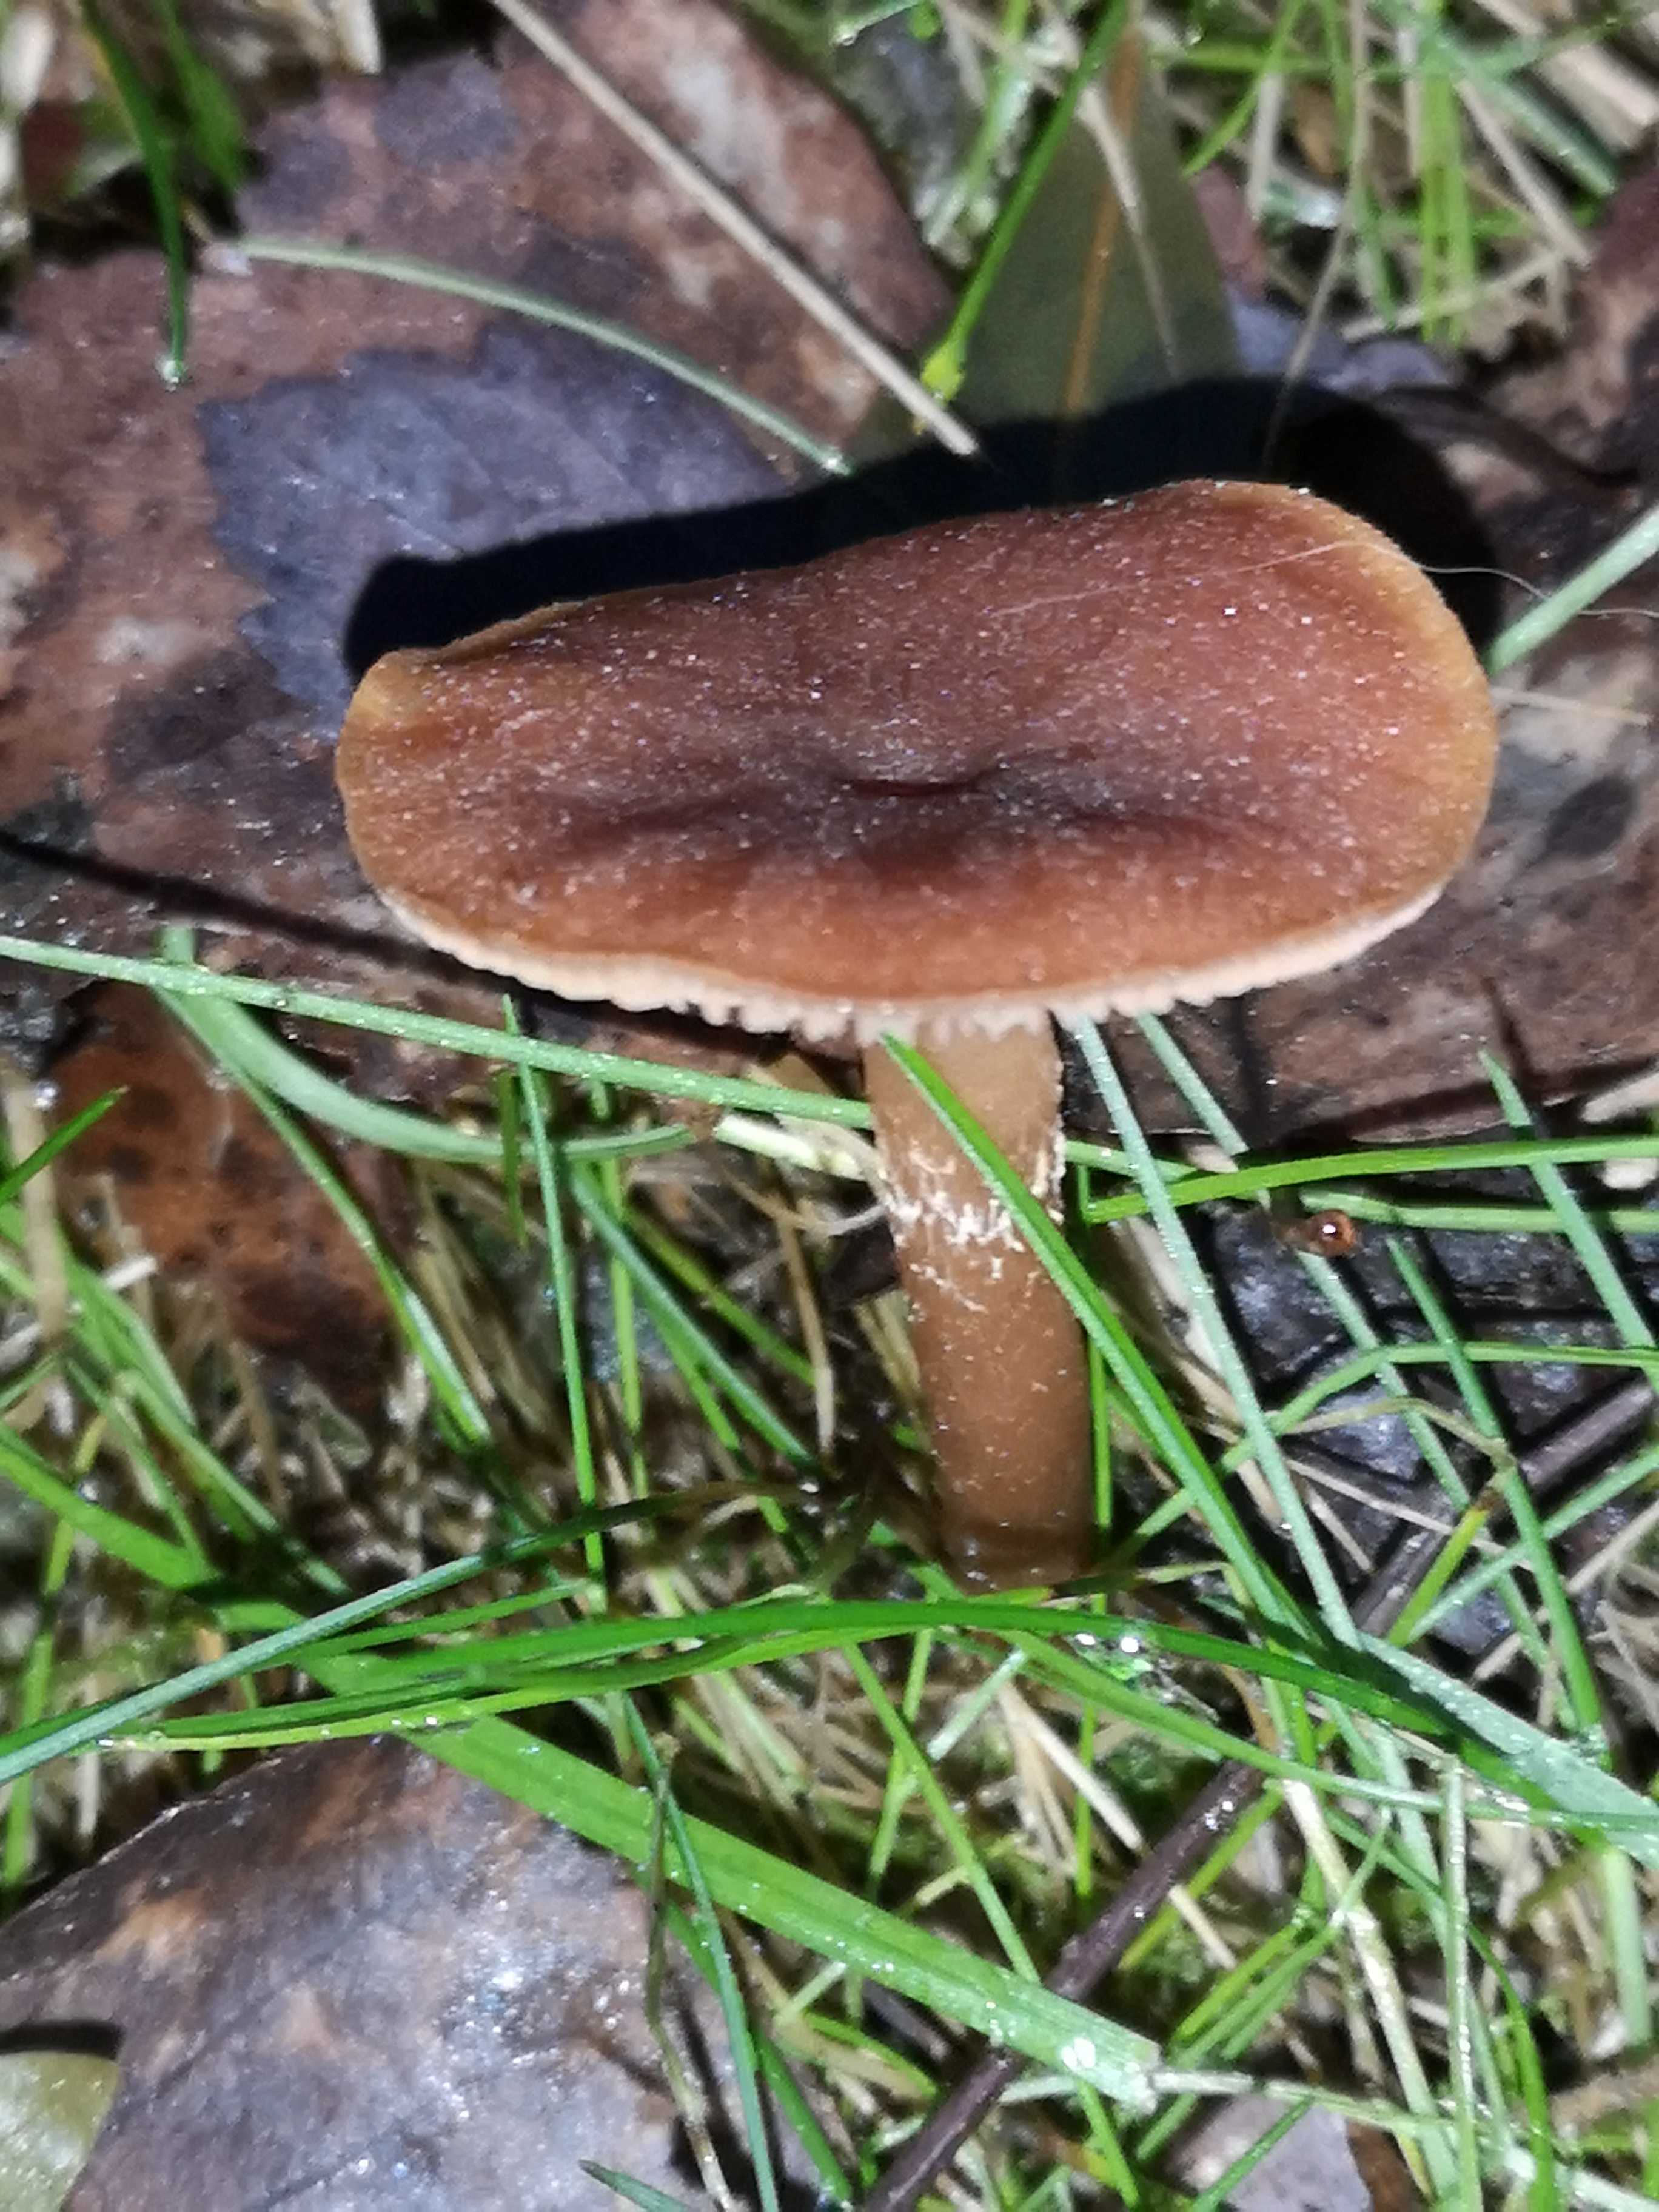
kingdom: Fungi
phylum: Basidiomycota
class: Agaricomycetes
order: Agaricales
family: Tubariaceae
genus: Tubaria
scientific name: Tubaria furfuracea
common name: kliddet fnughat
